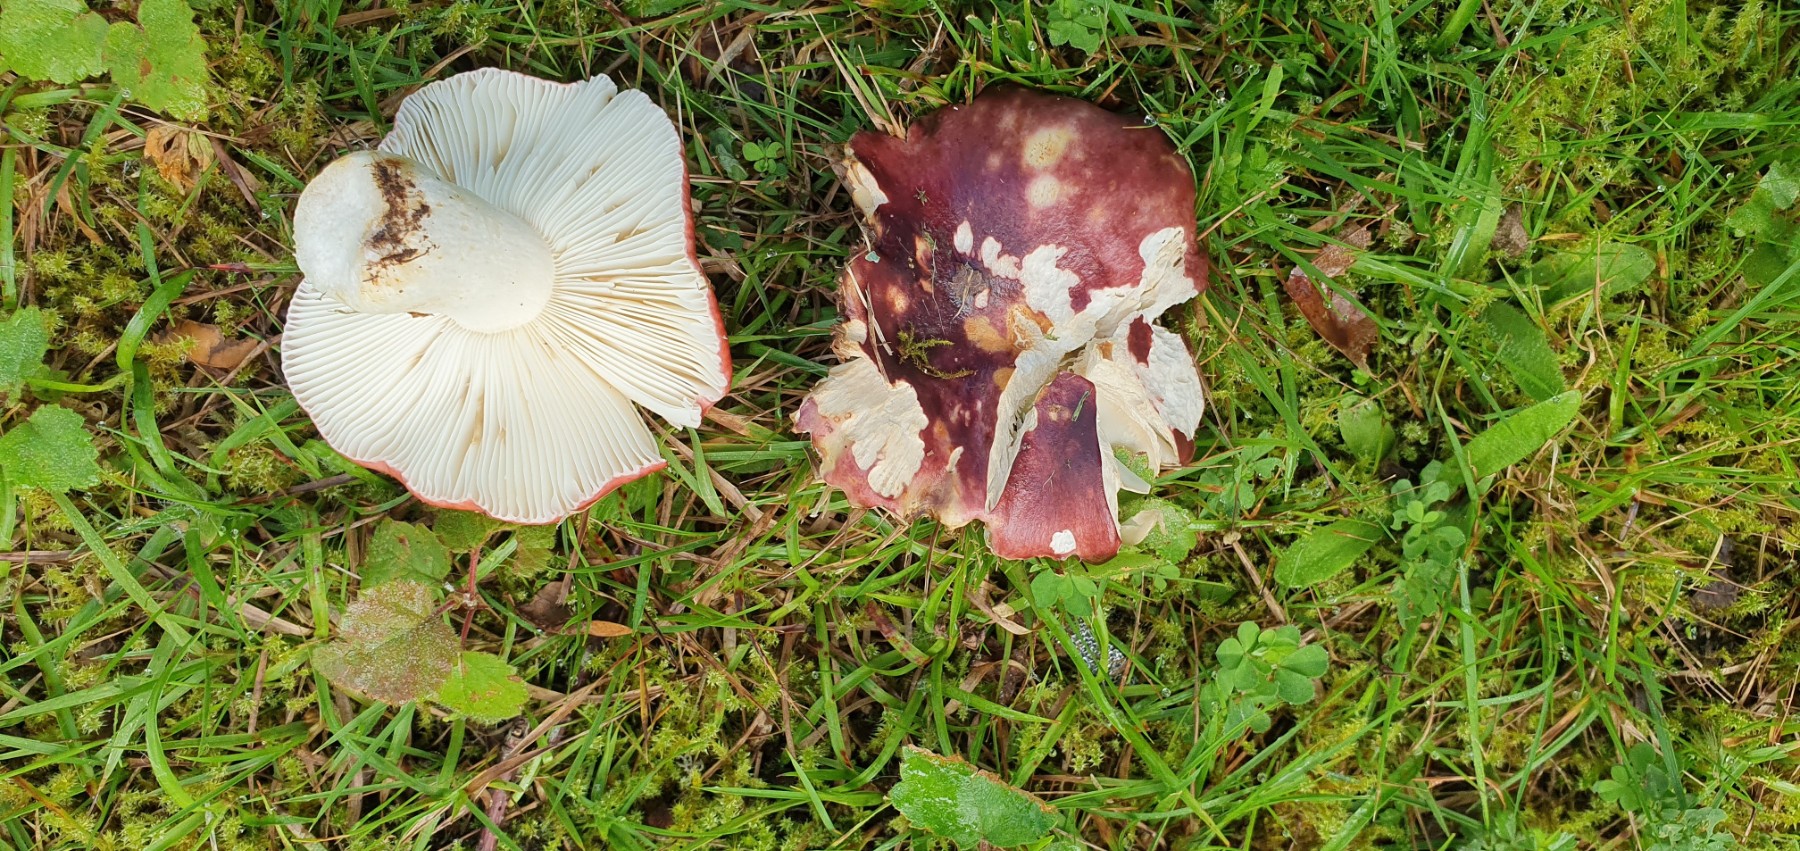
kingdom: Fungi
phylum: Basidiomycota
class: Agaricomycetes
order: Russulales
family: Russulaceae
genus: Russula
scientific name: Russula atropurpurea
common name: purpurbroget skørhat
